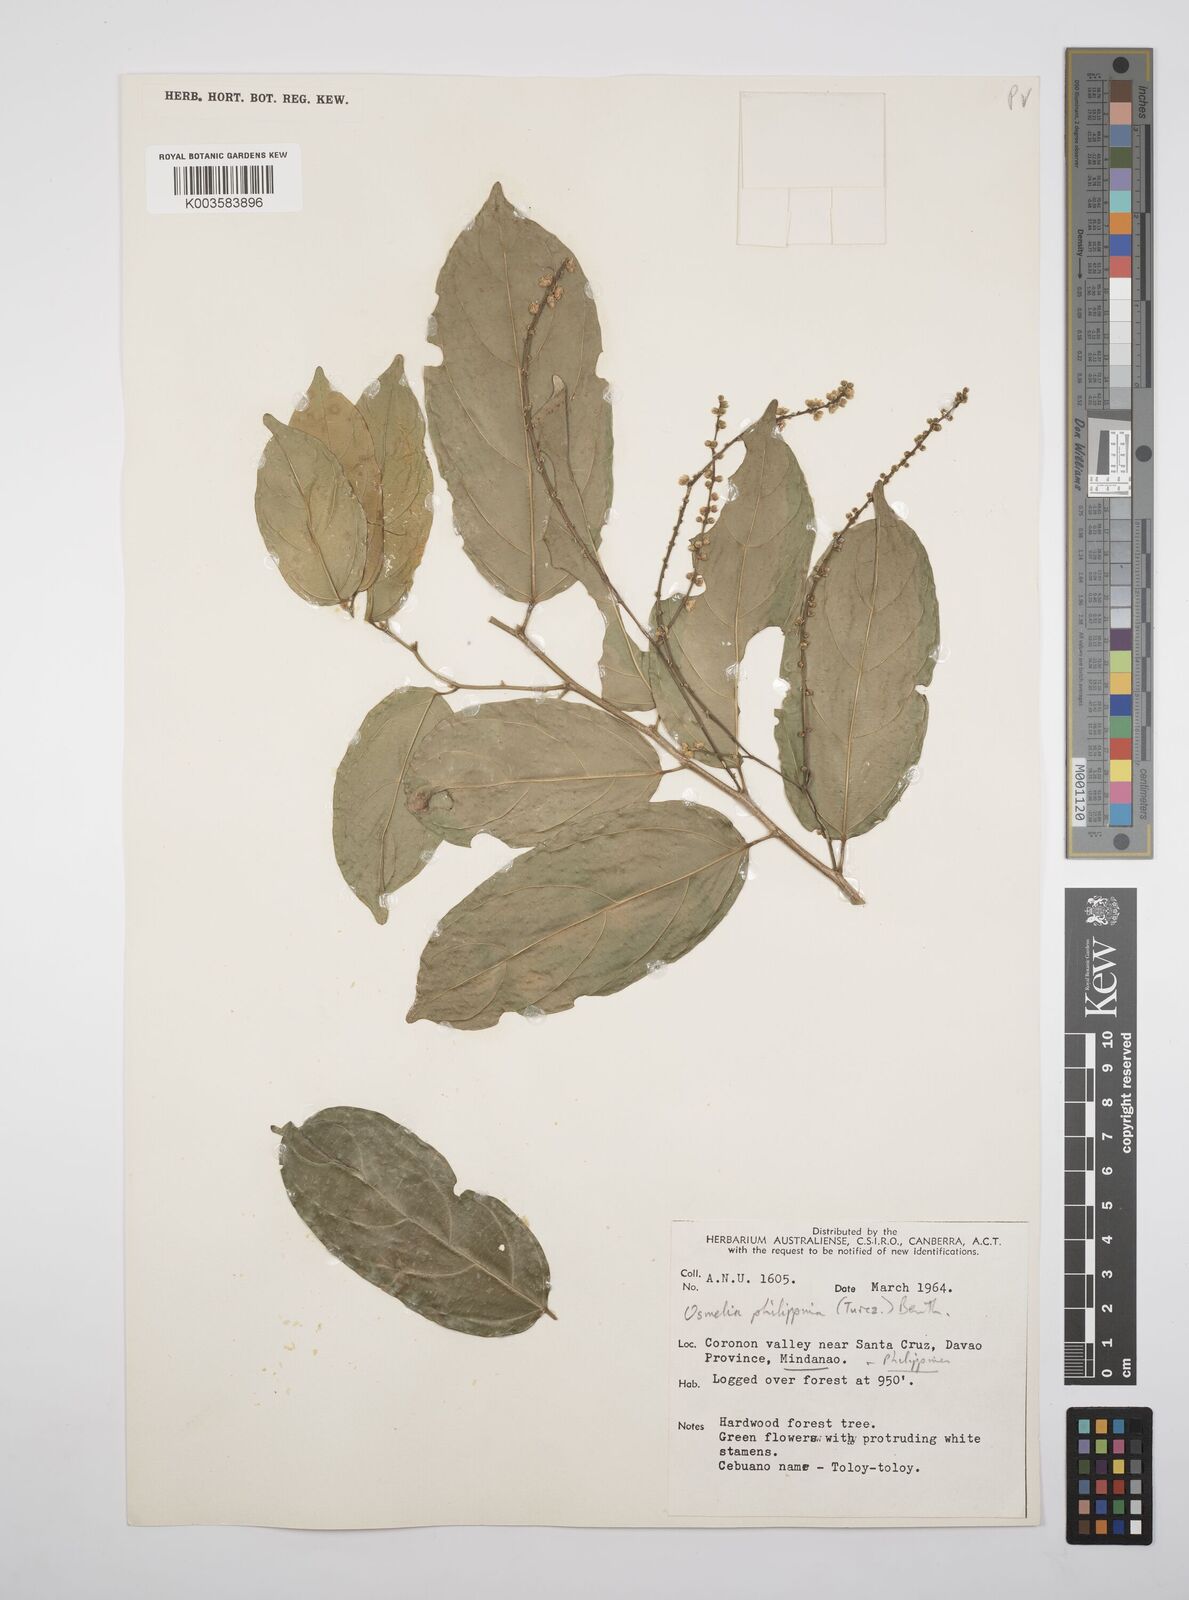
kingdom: Plantae
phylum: Tracheophyta
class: Magnoliopsida
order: Malpighiales
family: Salicaceae
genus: Osmelia
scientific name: Osmelia philippina
